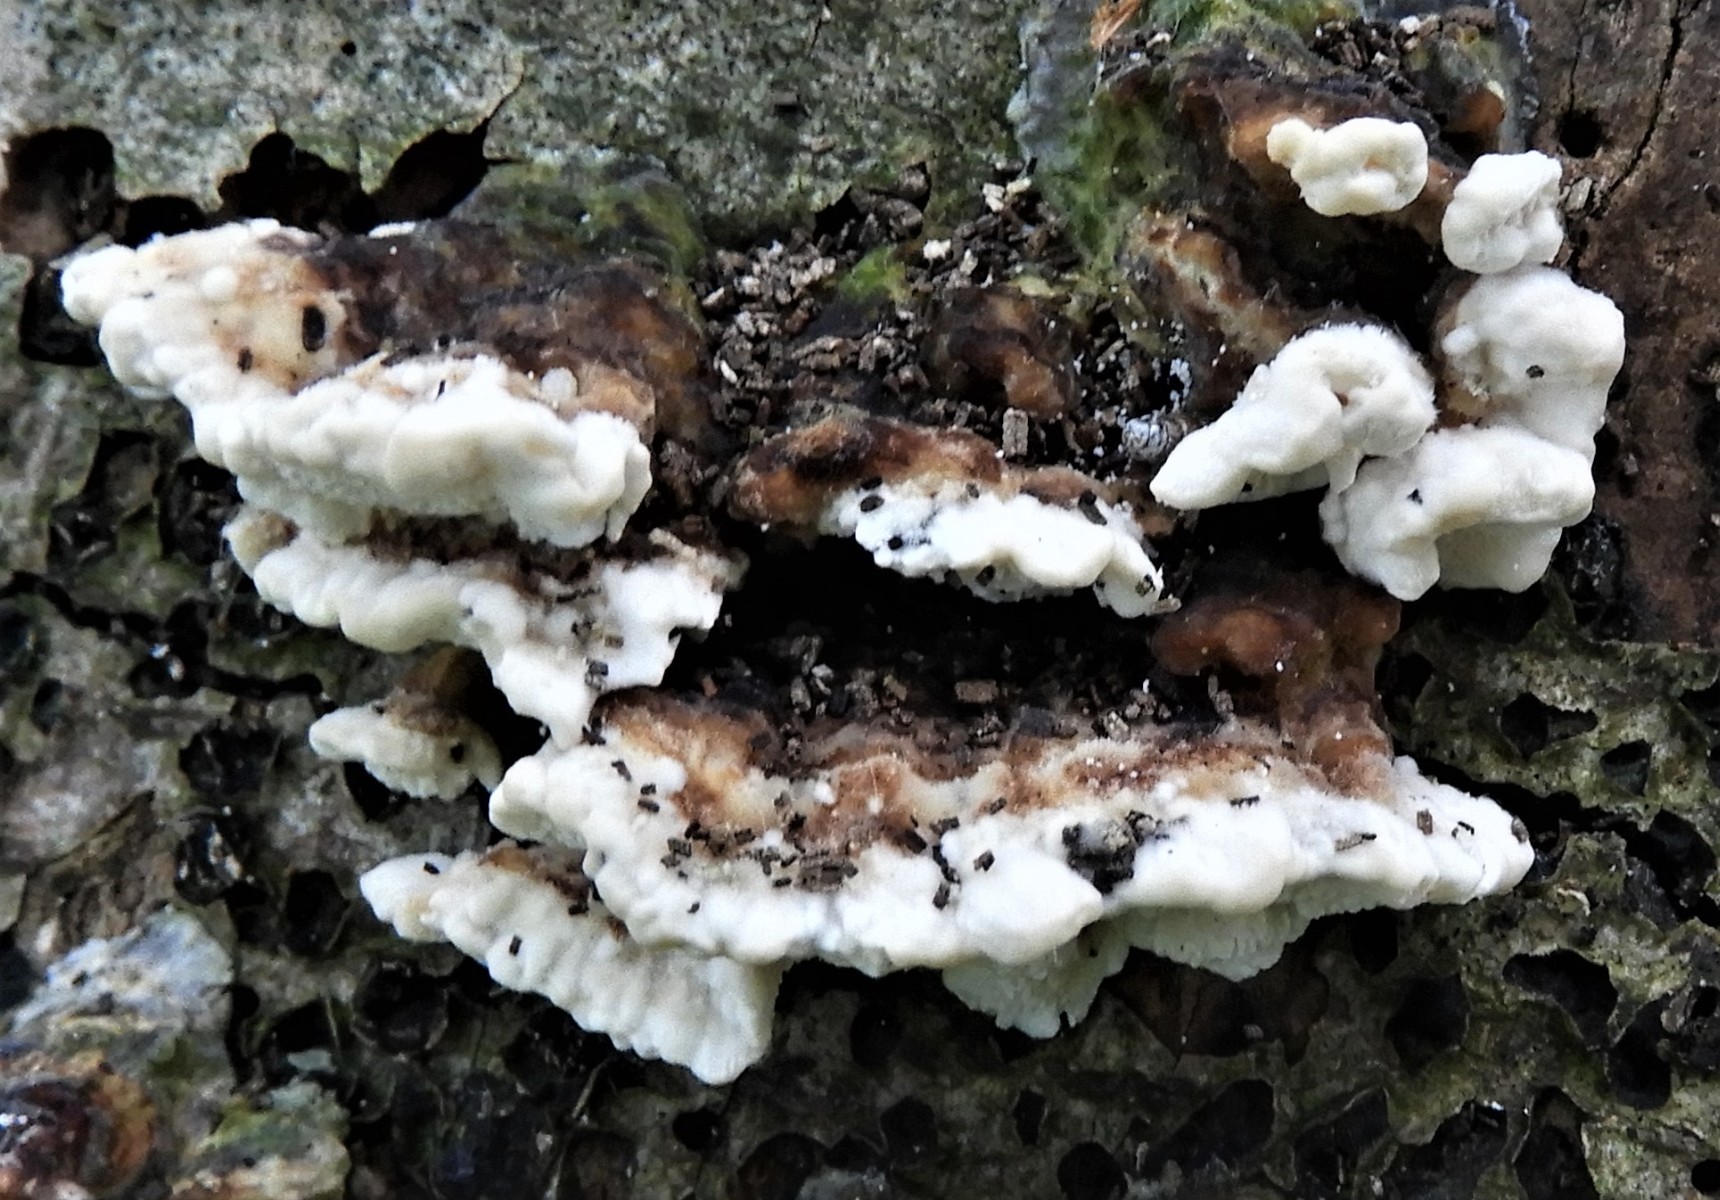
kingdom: Fungi
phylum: Basidiomycota
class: Agaricomycetes
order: Polyporales
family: Polyporaceae
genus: Trametes
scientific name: Trametes versicolor
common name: broget læderporesvamp
